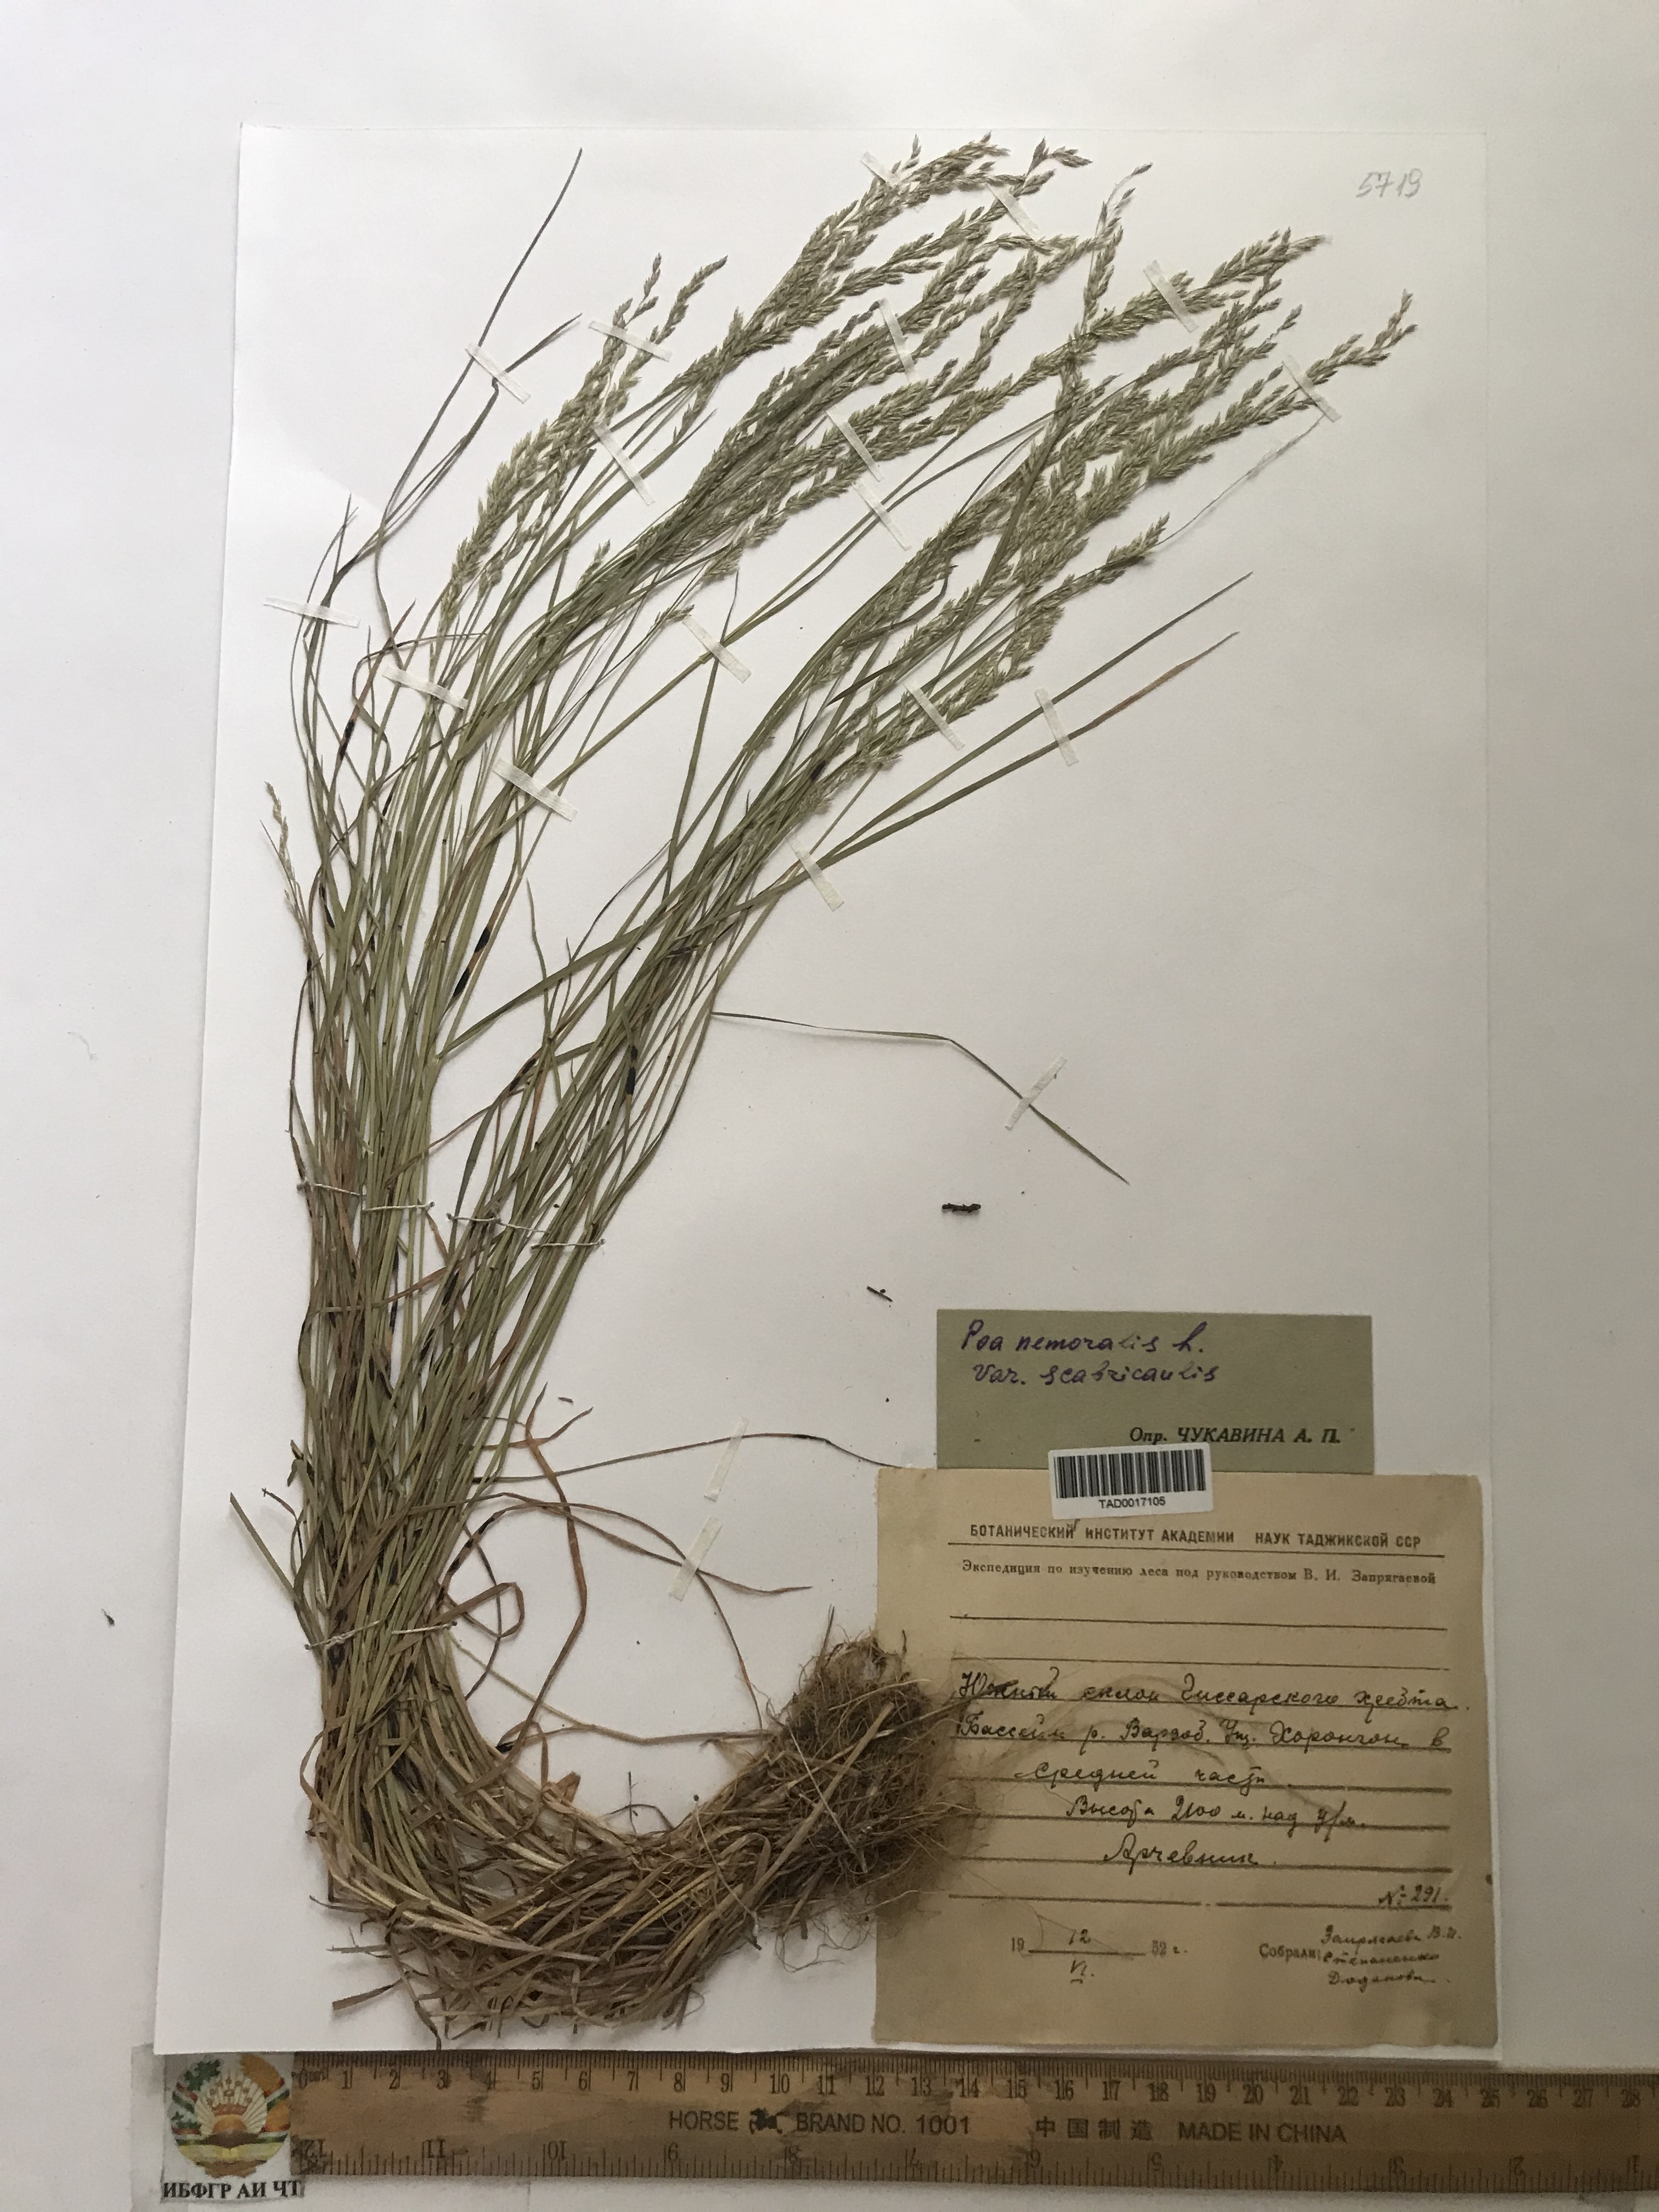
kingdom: Plantae
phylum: Tracheophyta
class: Liliopsida
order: Poales
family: Poaceae
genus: Poa
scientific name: Poa nemoralis
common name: Wood bluegrass
